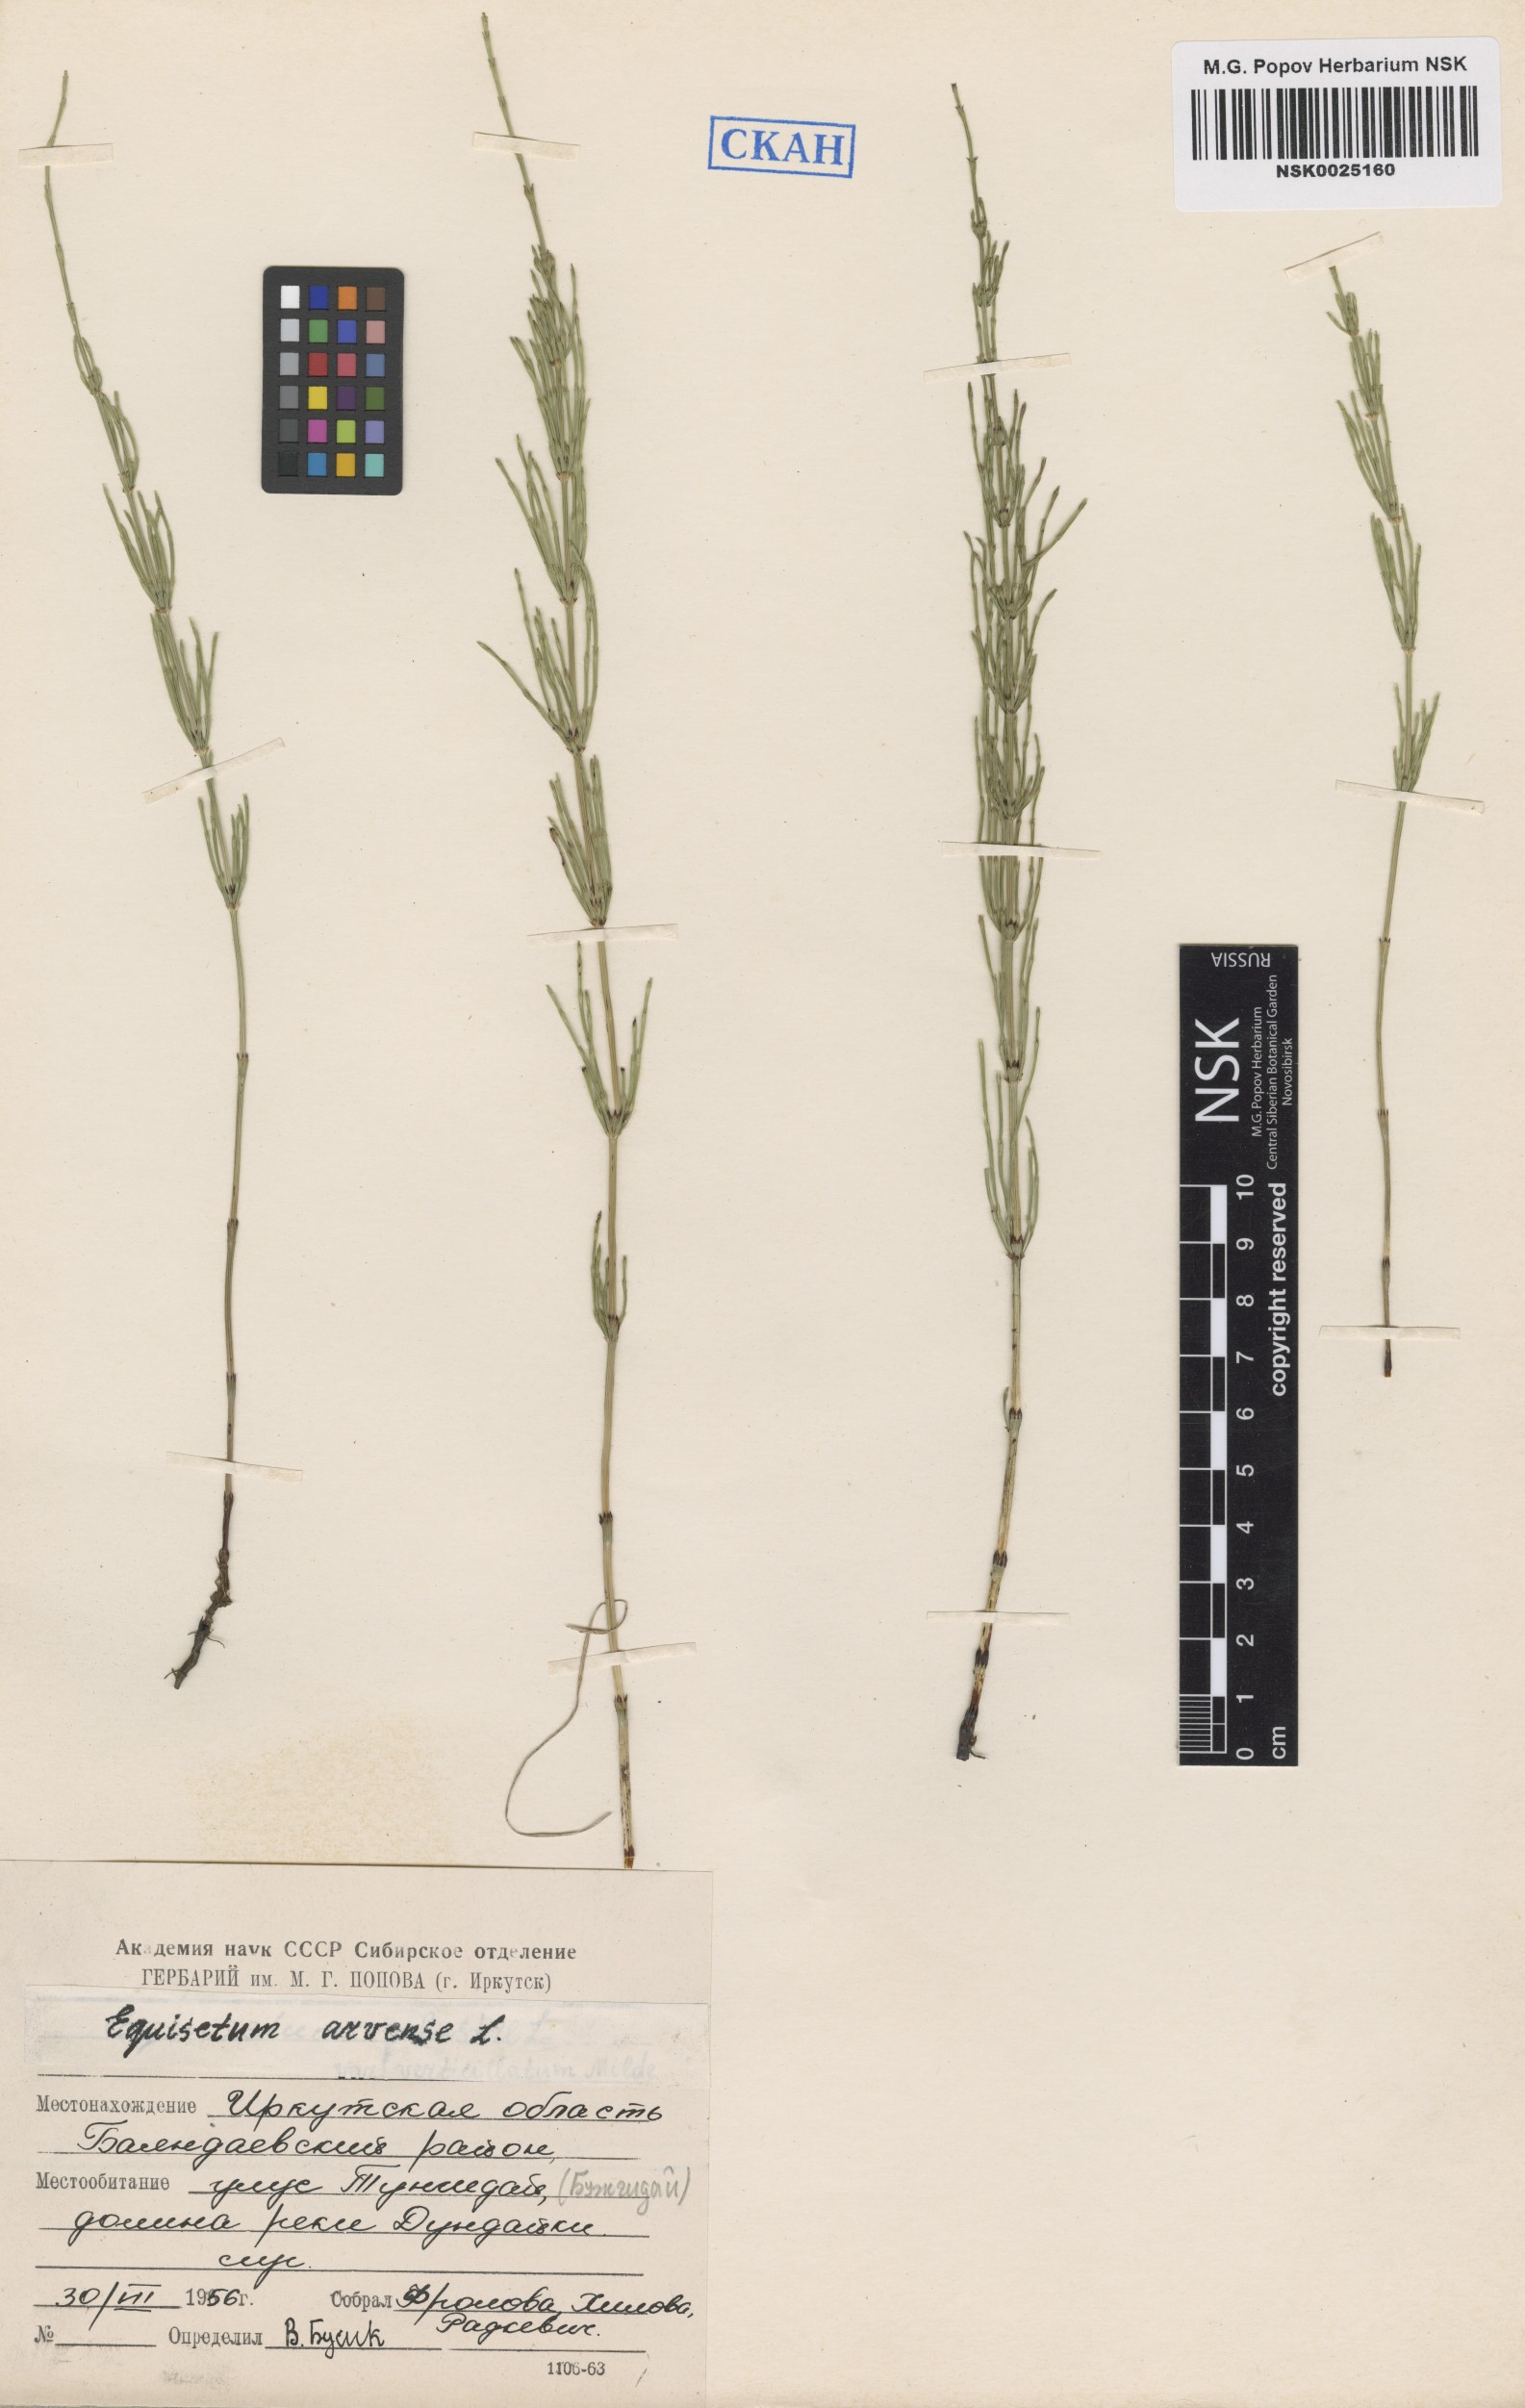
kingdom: Plantae
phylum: Tracheophyta
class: Polypodiopsida
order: Equisetales
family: Equisetaceae
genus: Equisetum
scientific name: Equisetum arvense
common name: Field horsetail
